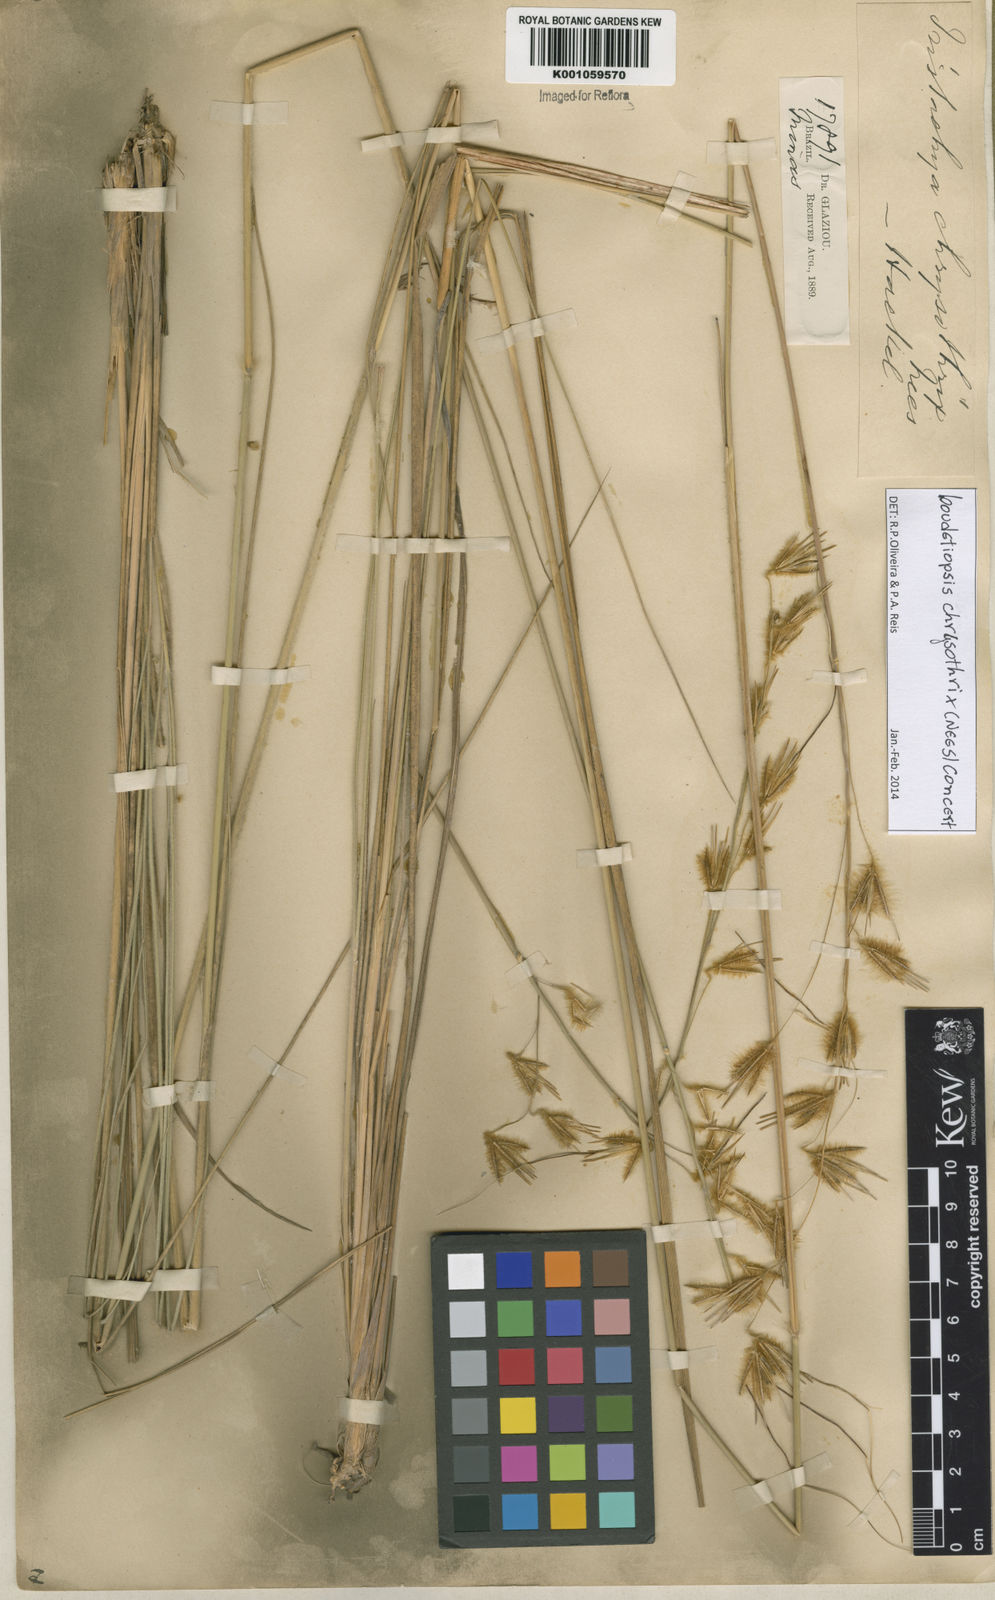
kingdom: Plantae
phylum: Tracheophyta
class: Liliopsida
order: Poales
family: Poaceae
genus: Loudetiopsis
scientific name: Loudetiopsis chrysothrix
